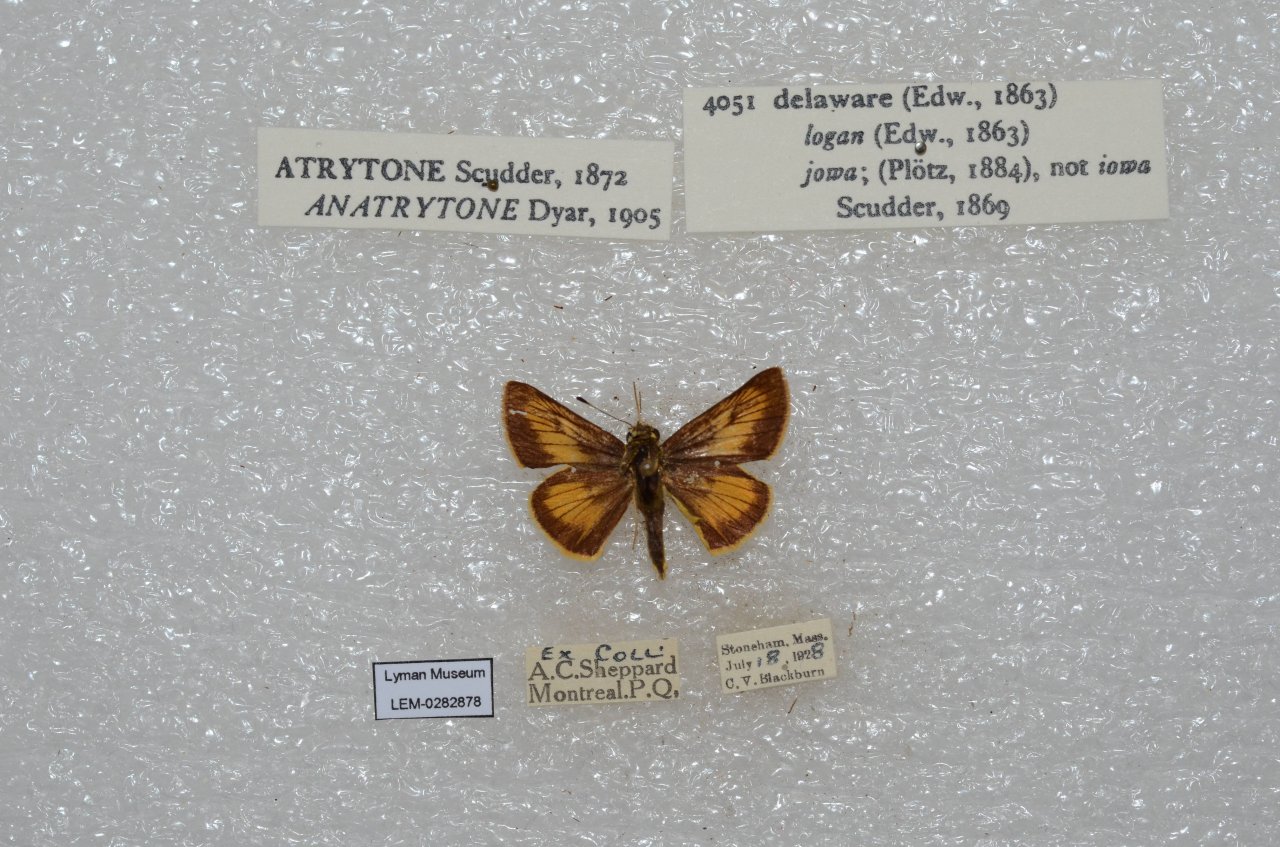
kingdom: Animalia
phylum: Arthropoda
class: Insecta
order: Lepidoptera
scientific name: Lepidoptera
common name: Butterflies
